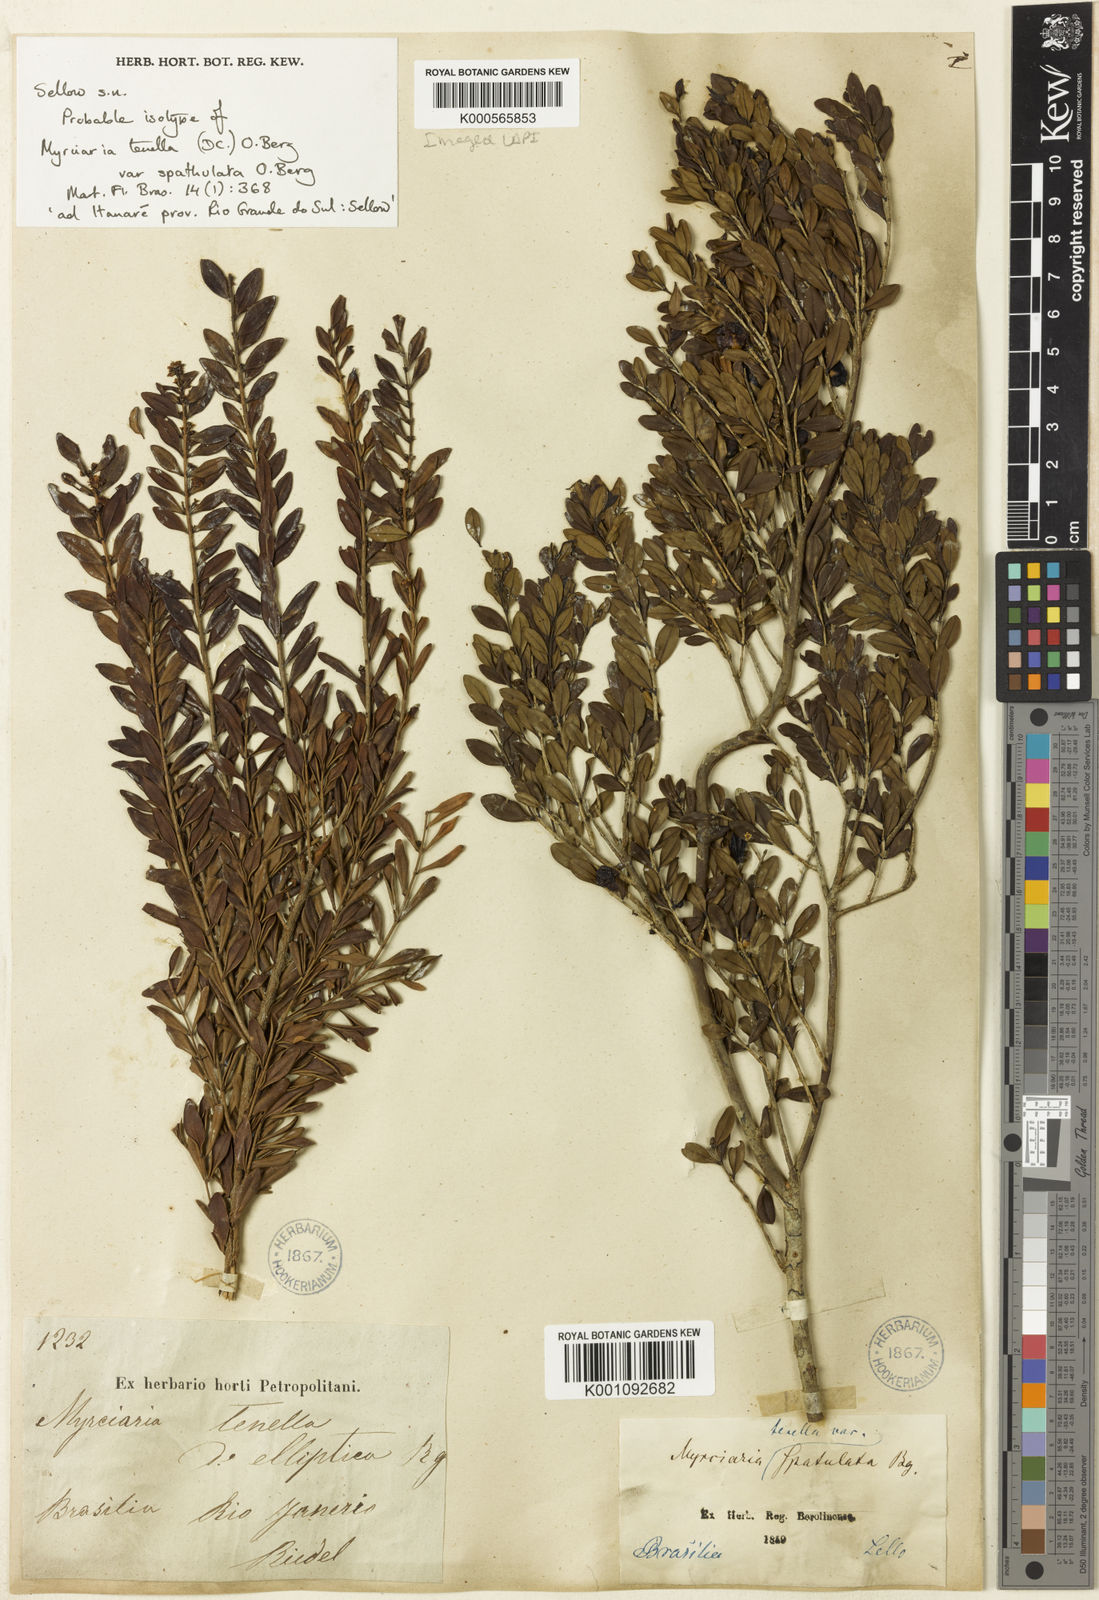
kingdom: Plantae
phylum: Tracheophyta
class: Magnoliopsida
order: Myrtales
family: Myrtaceae
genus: Myrciaria
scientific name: Myrciaria tenella
